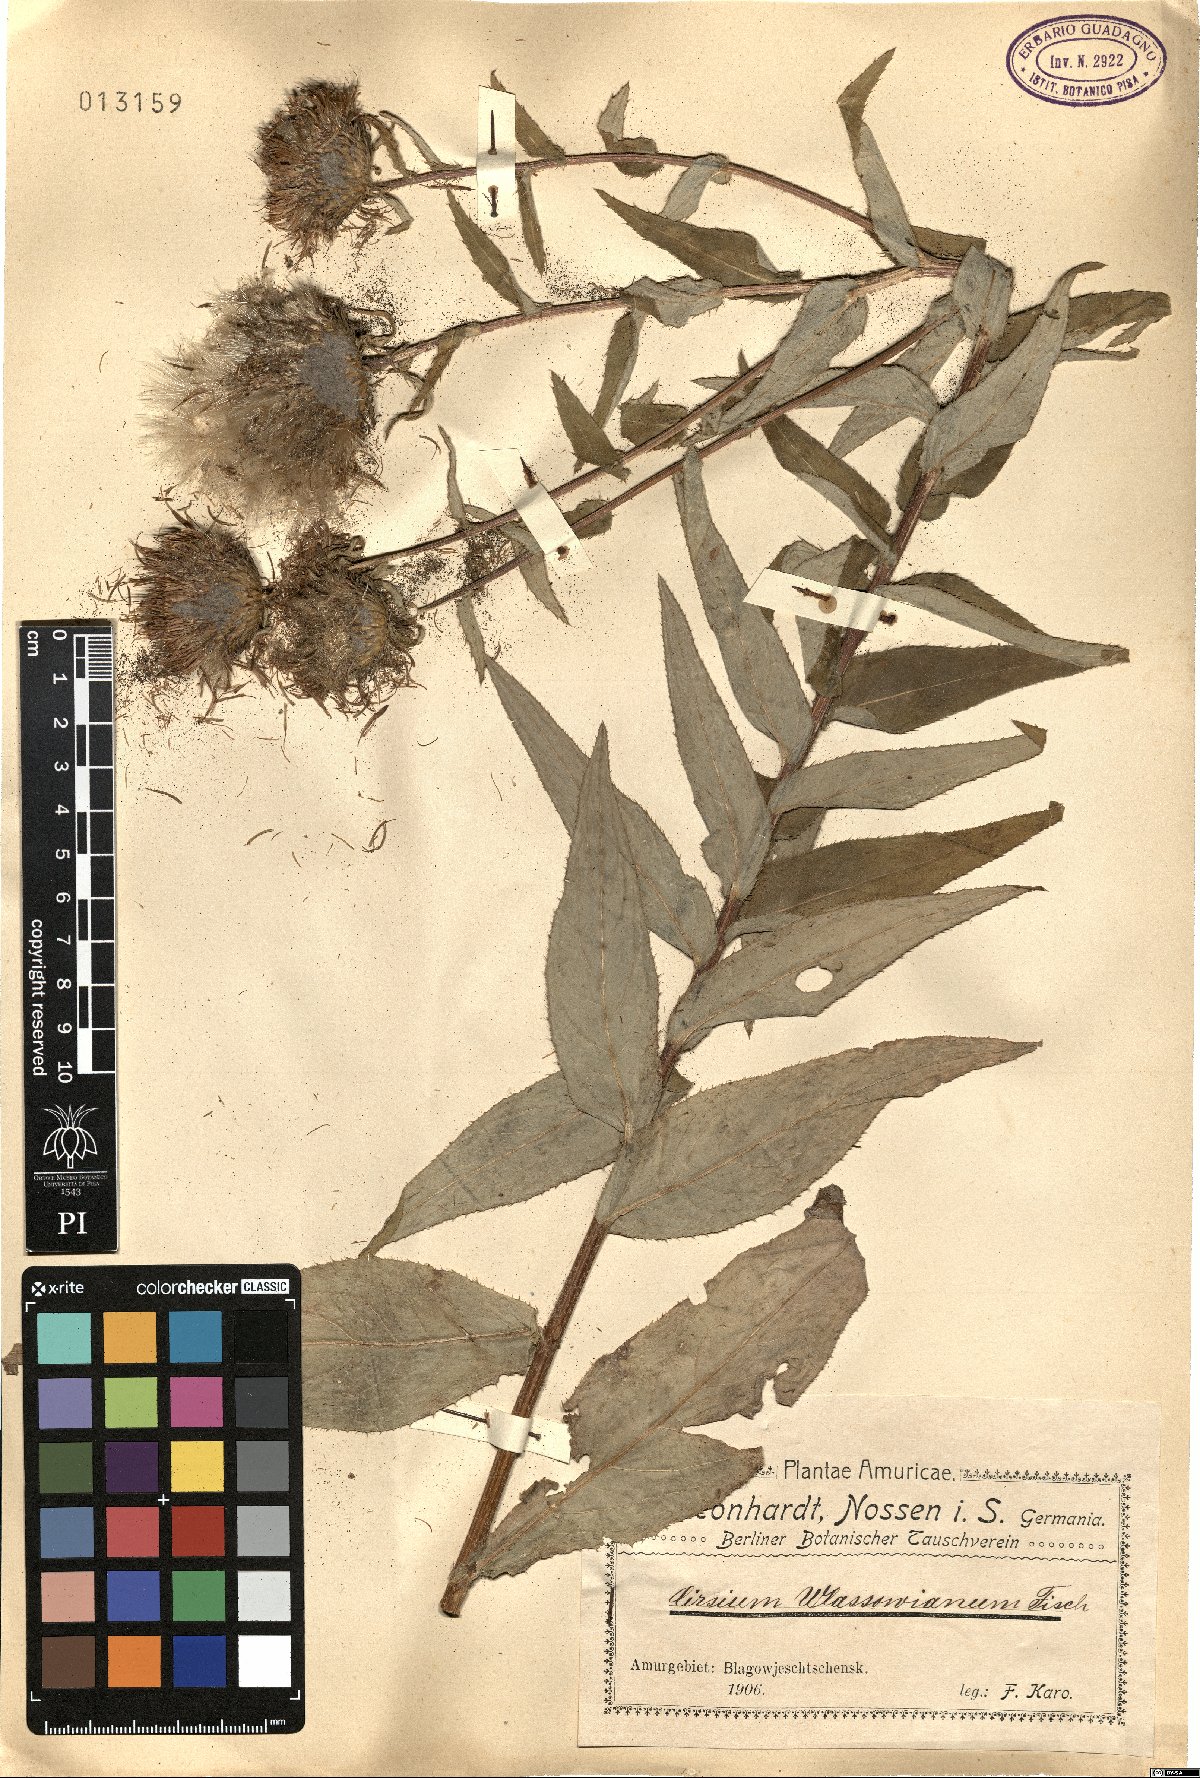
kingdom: Plantae
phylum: Tracheophyta
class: Magnoliopsida
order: Asterales
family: Asteraceae
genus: Cirsium
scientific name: Cirsium vlassovianum
